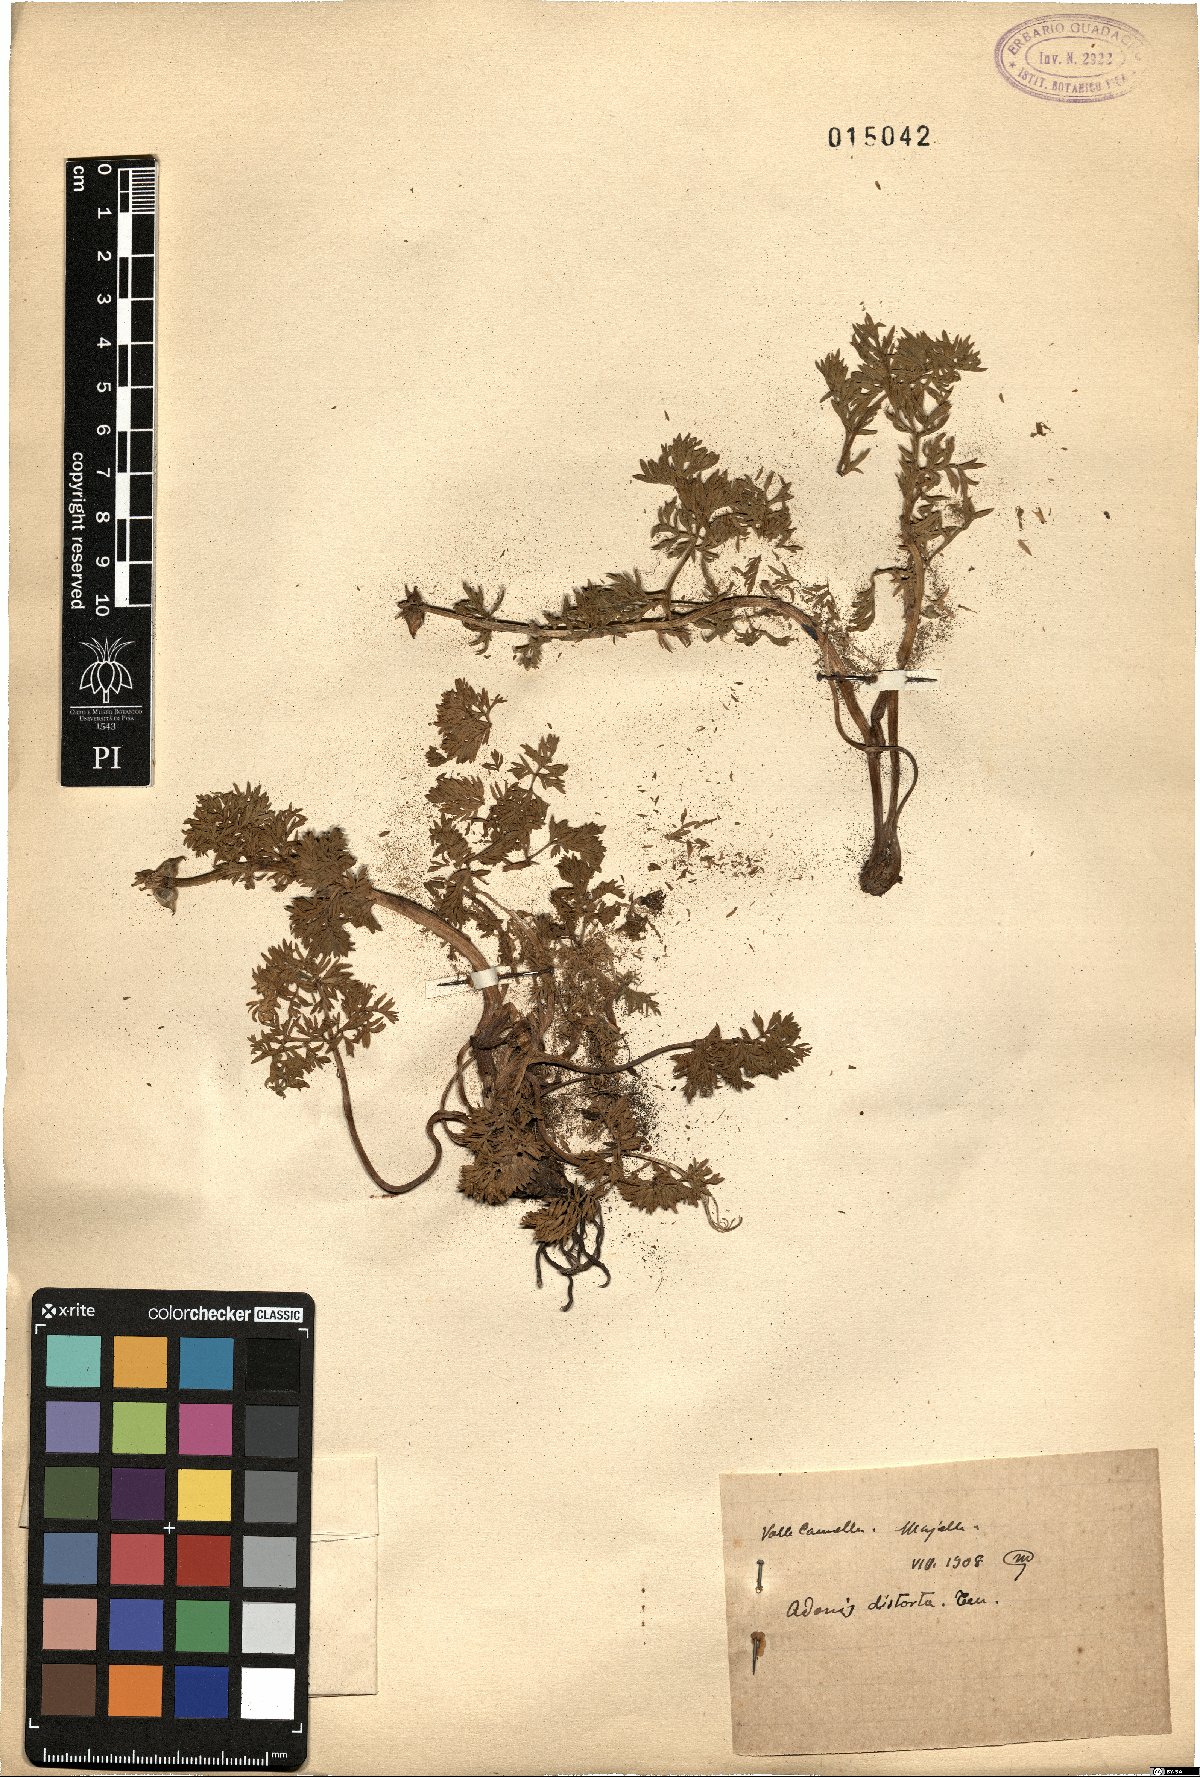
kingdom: Plantae
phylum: Tracheophyta
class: Magnoliopsida
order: Ranunculales
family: Ranunculaceae
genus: Adonis
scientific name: Adonis distorta
